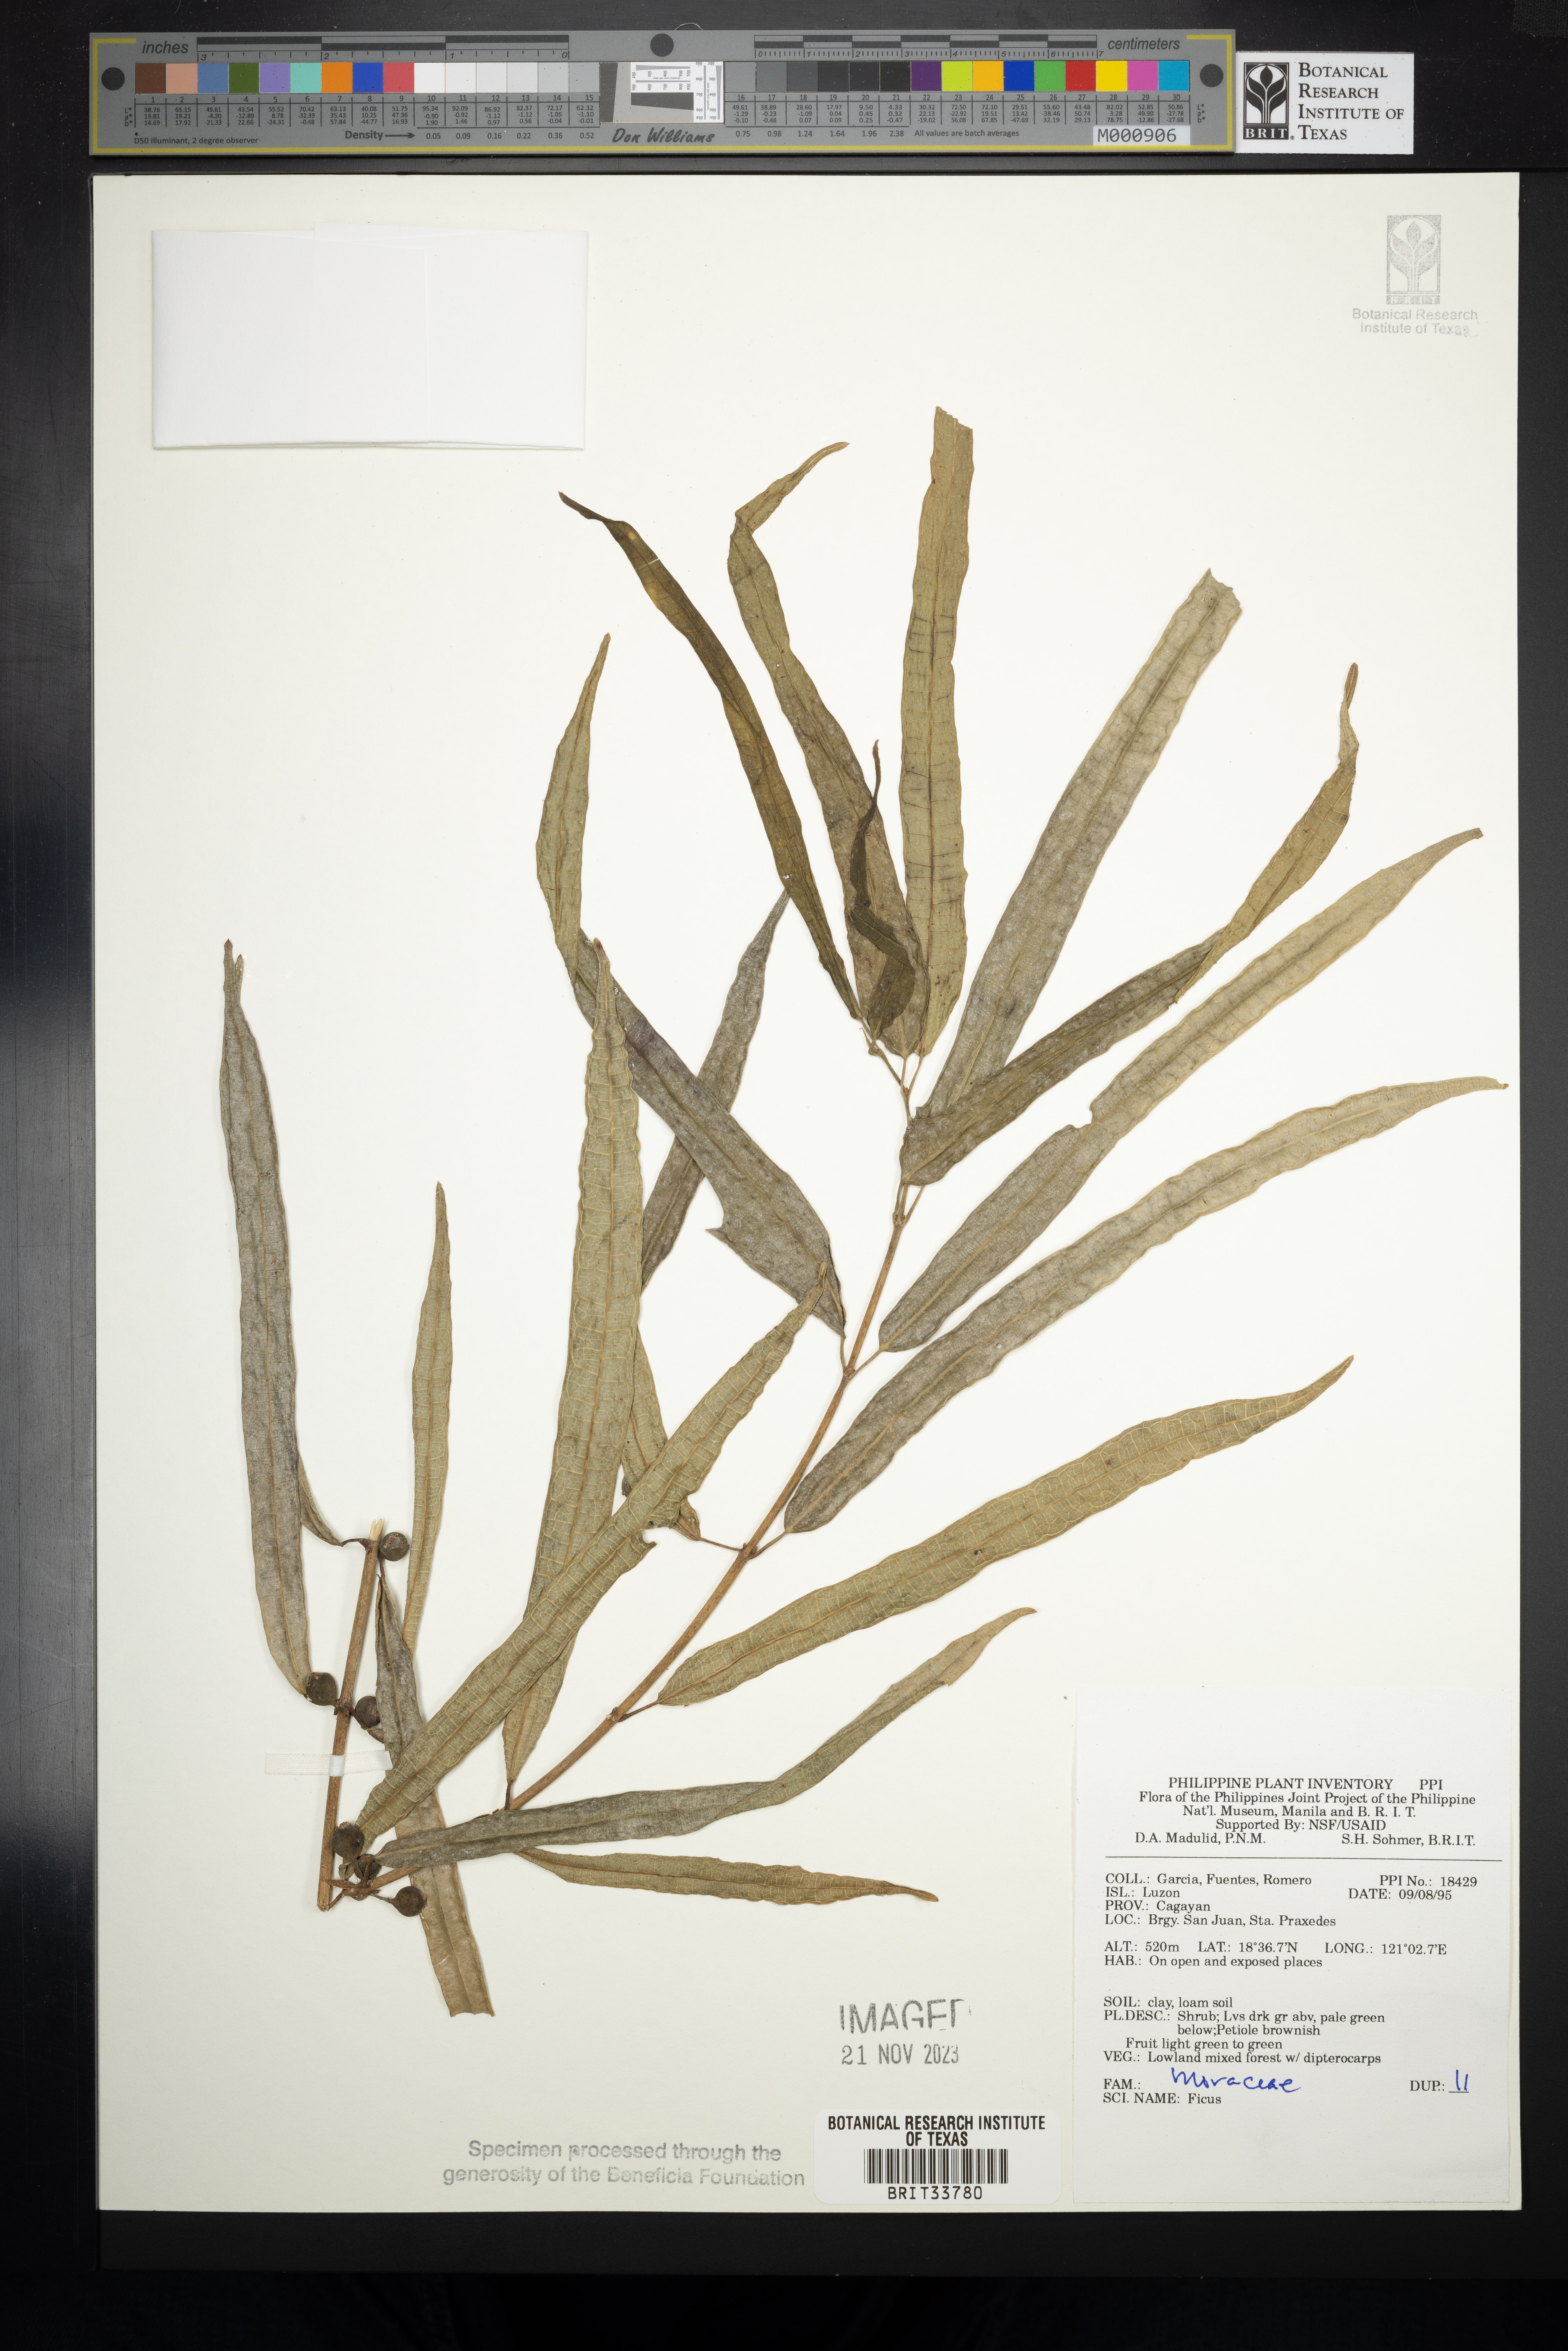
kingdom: Plantae
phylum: Tracheophyta
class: Magnoliopsida
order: Rosales
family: Moraceae
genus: Ficus
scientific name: Ficus
